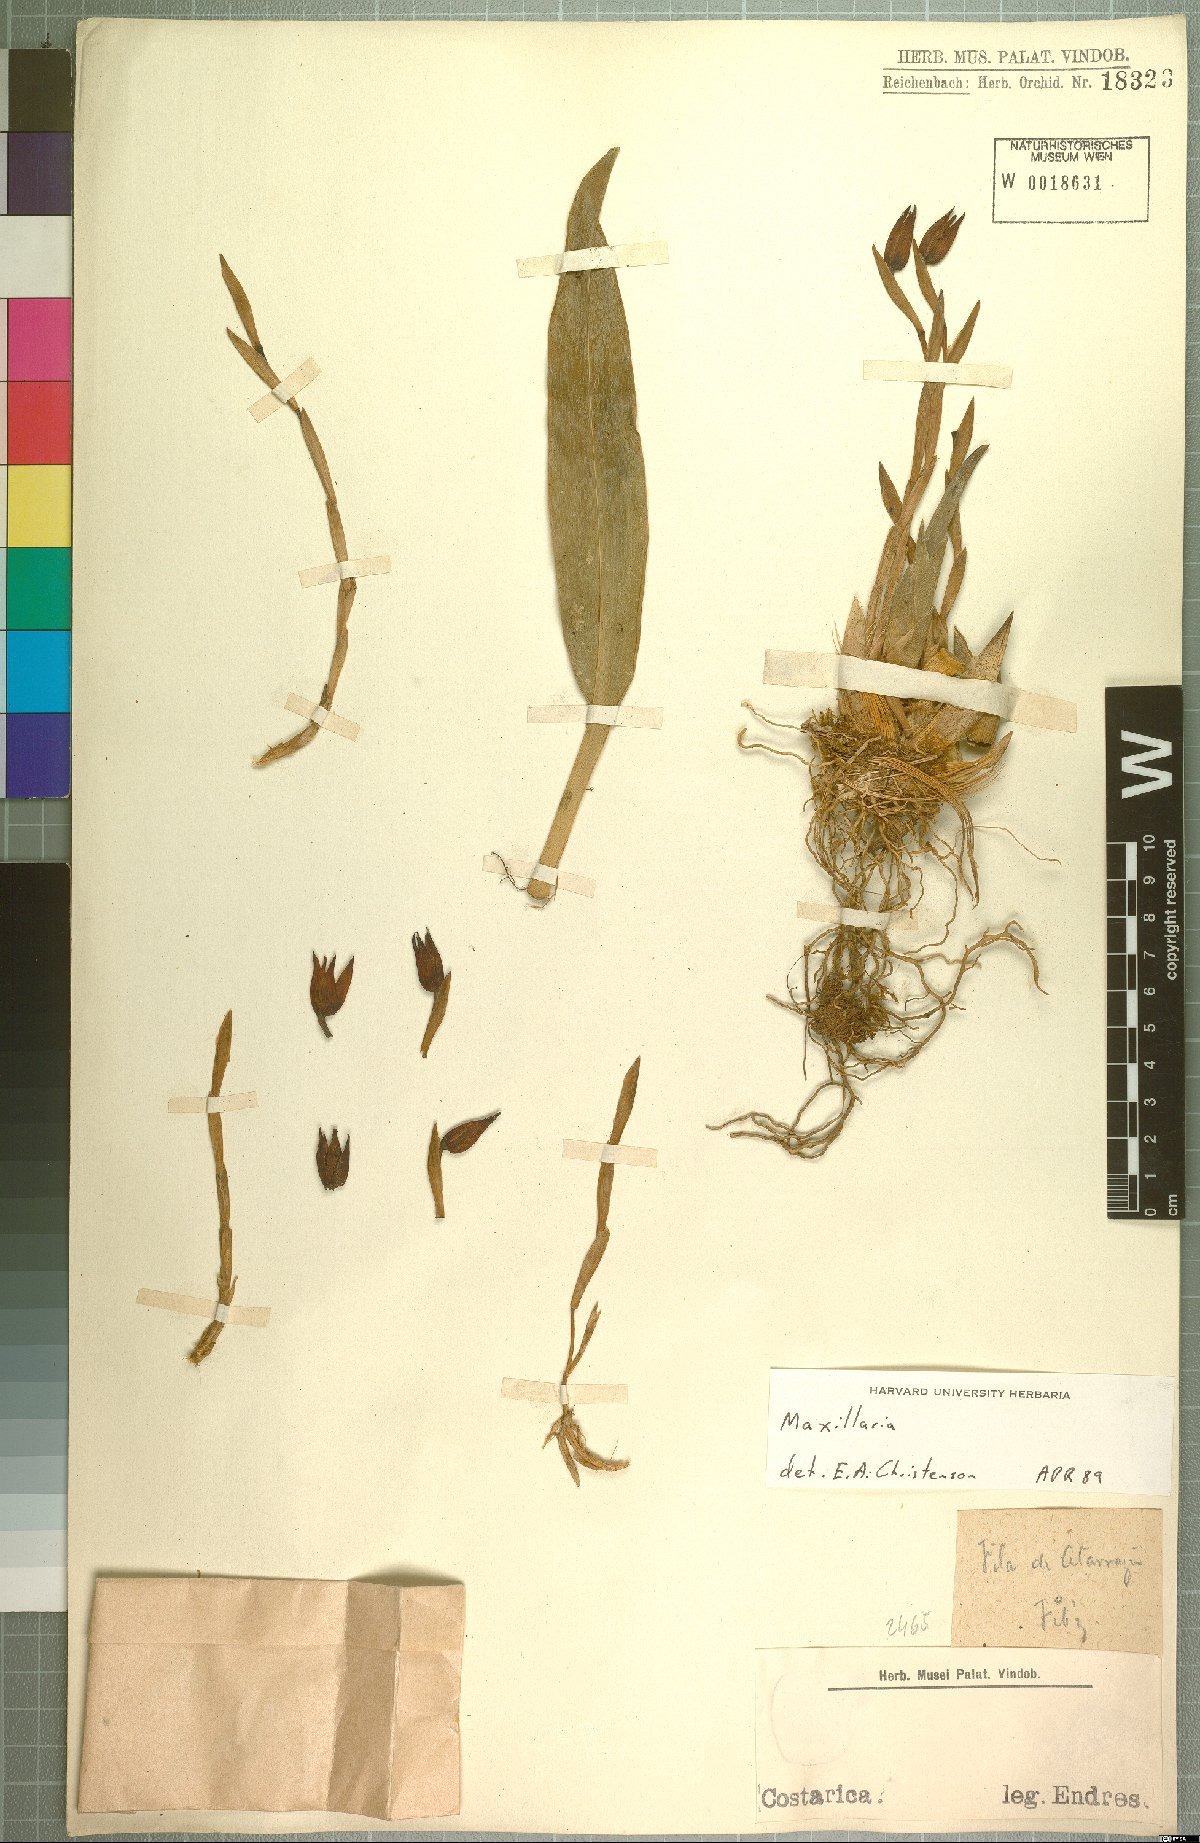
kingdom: Plantae
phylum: Tracheophyta
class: Liliopsida
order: Asparagales
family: Orchidaceae
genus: Maxillaria
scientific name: Maxillaria
